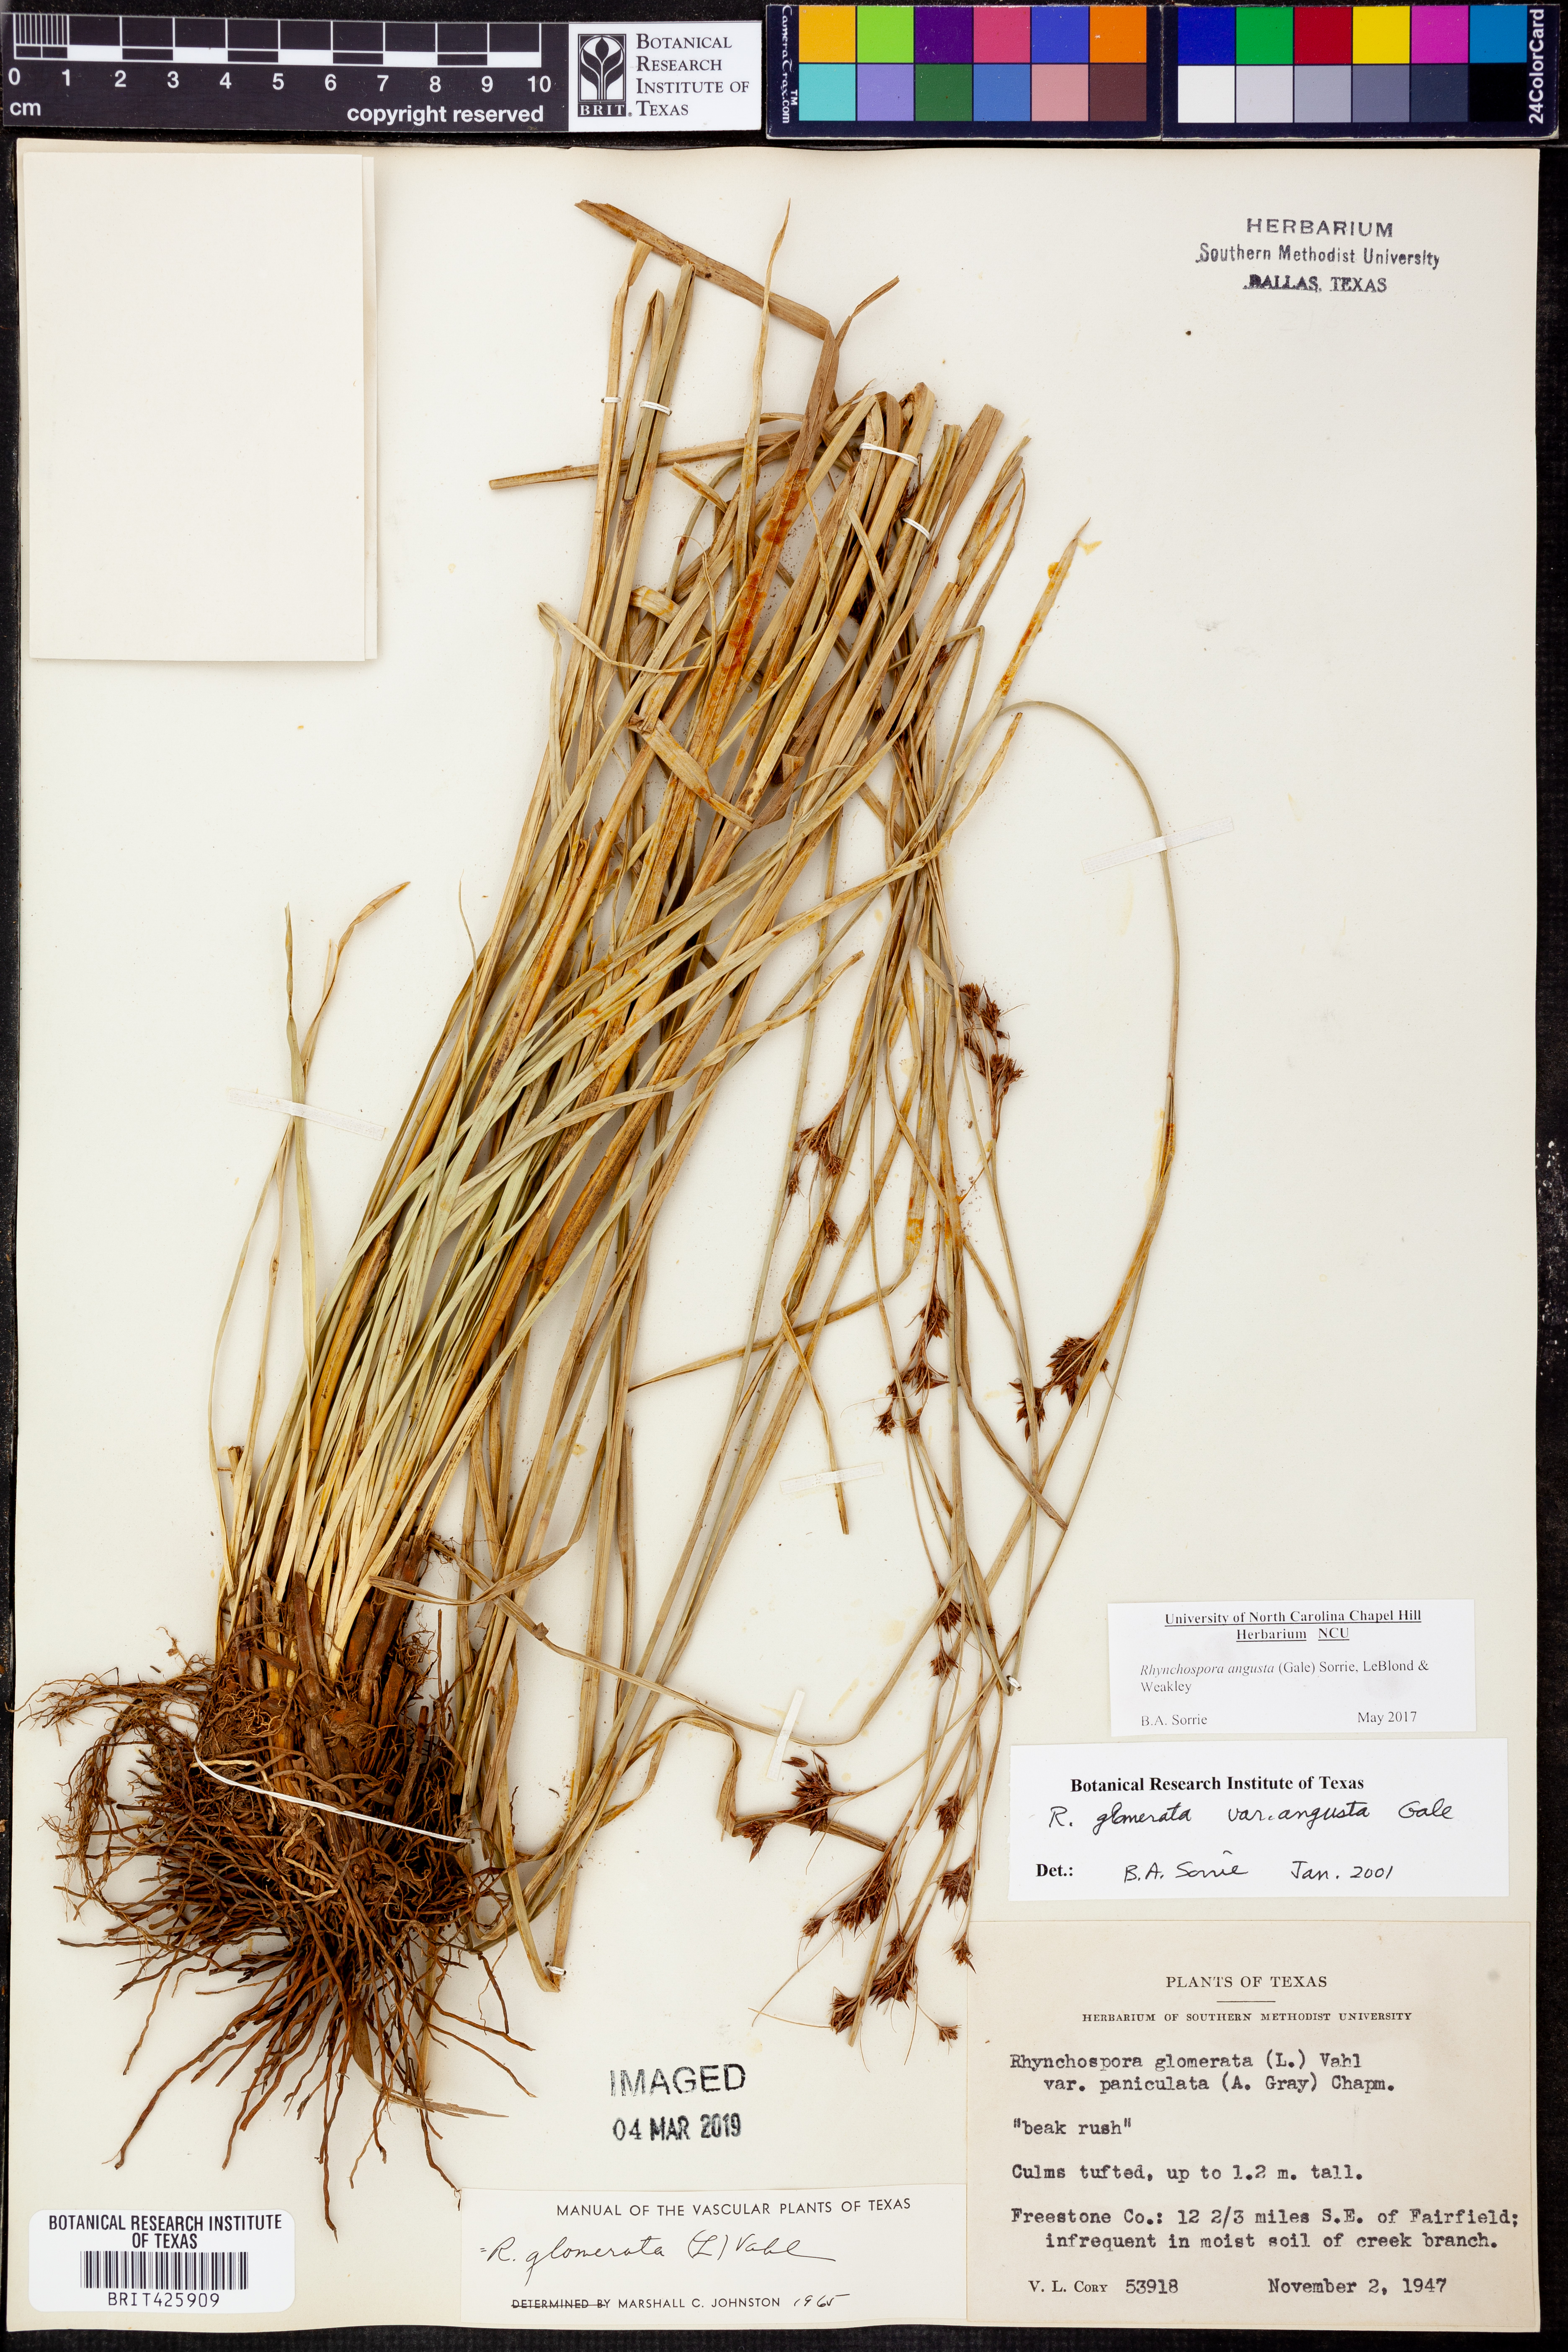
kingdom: Plantae
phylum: Tracheophyta
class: Liliopsida
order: Poales
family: Cyperaceae
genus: Rhynchospora
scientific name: Rhynchospora angusta
